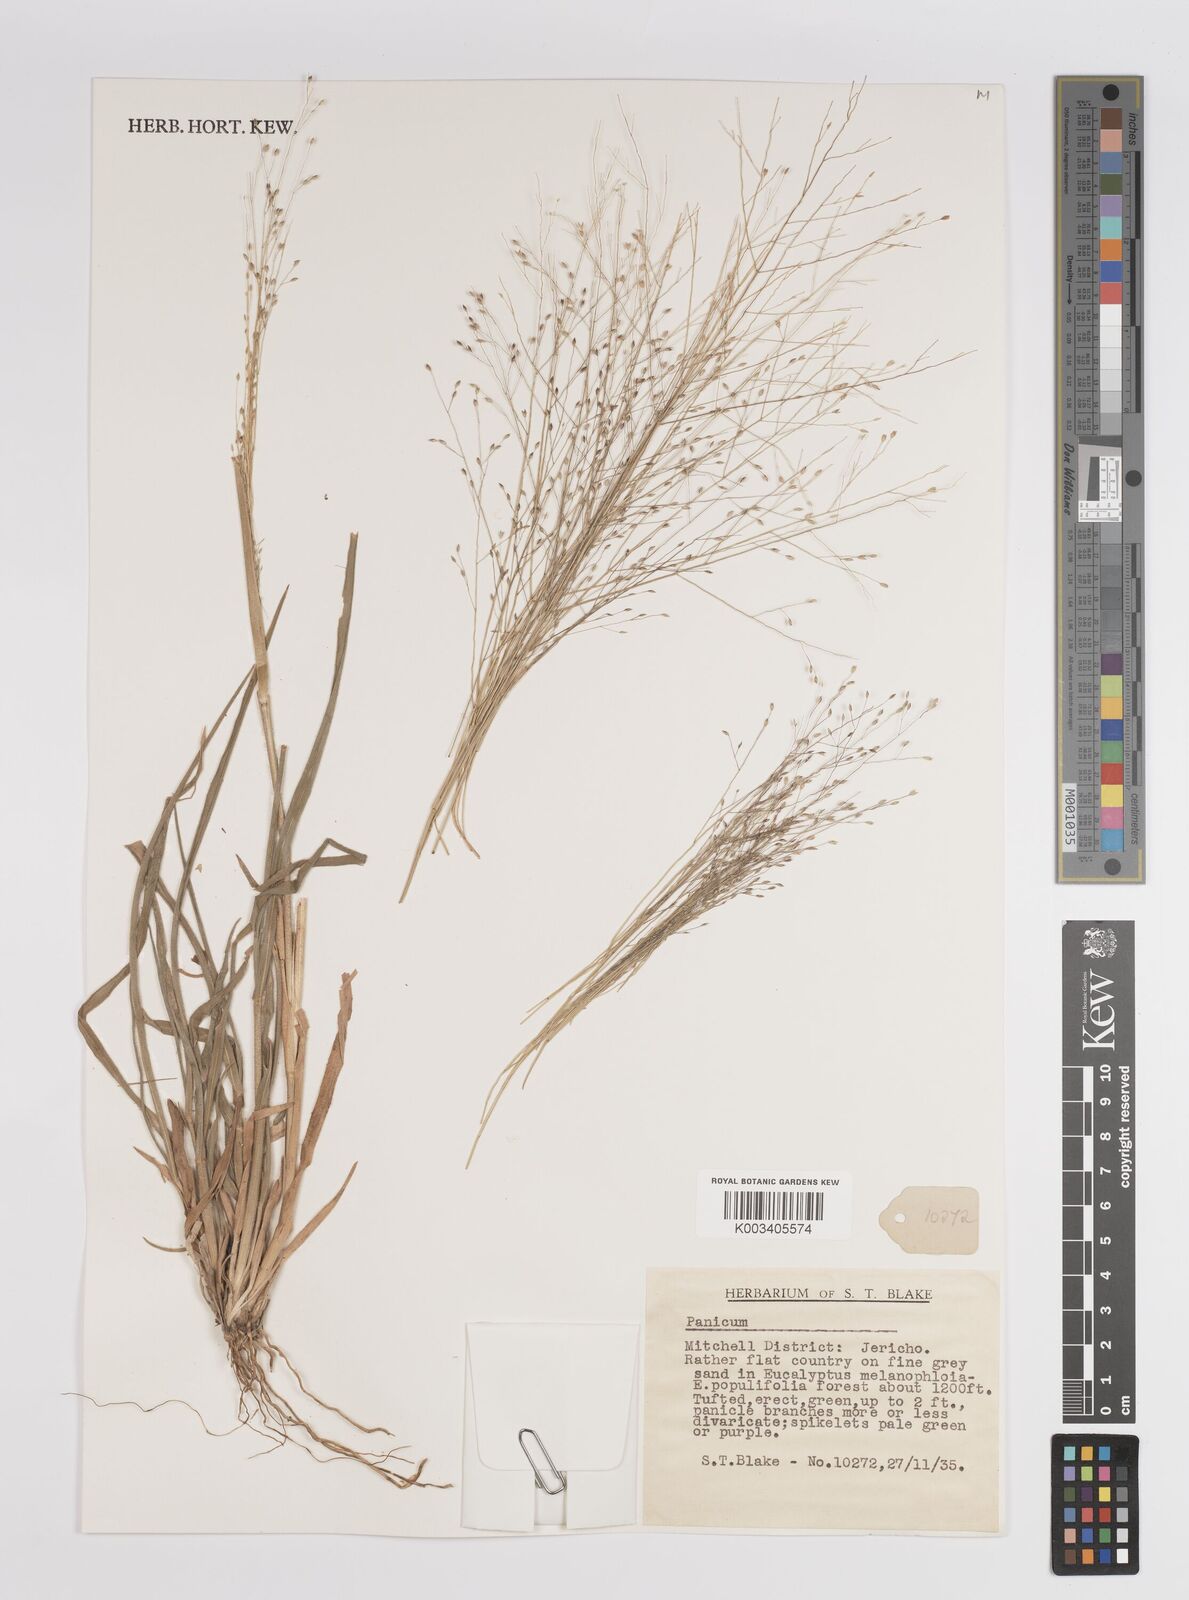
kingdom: Plantae
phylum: Tracheophyta
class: Liliopsida
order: Poales
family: Poaceae
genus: Panicum
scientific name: Panicum
